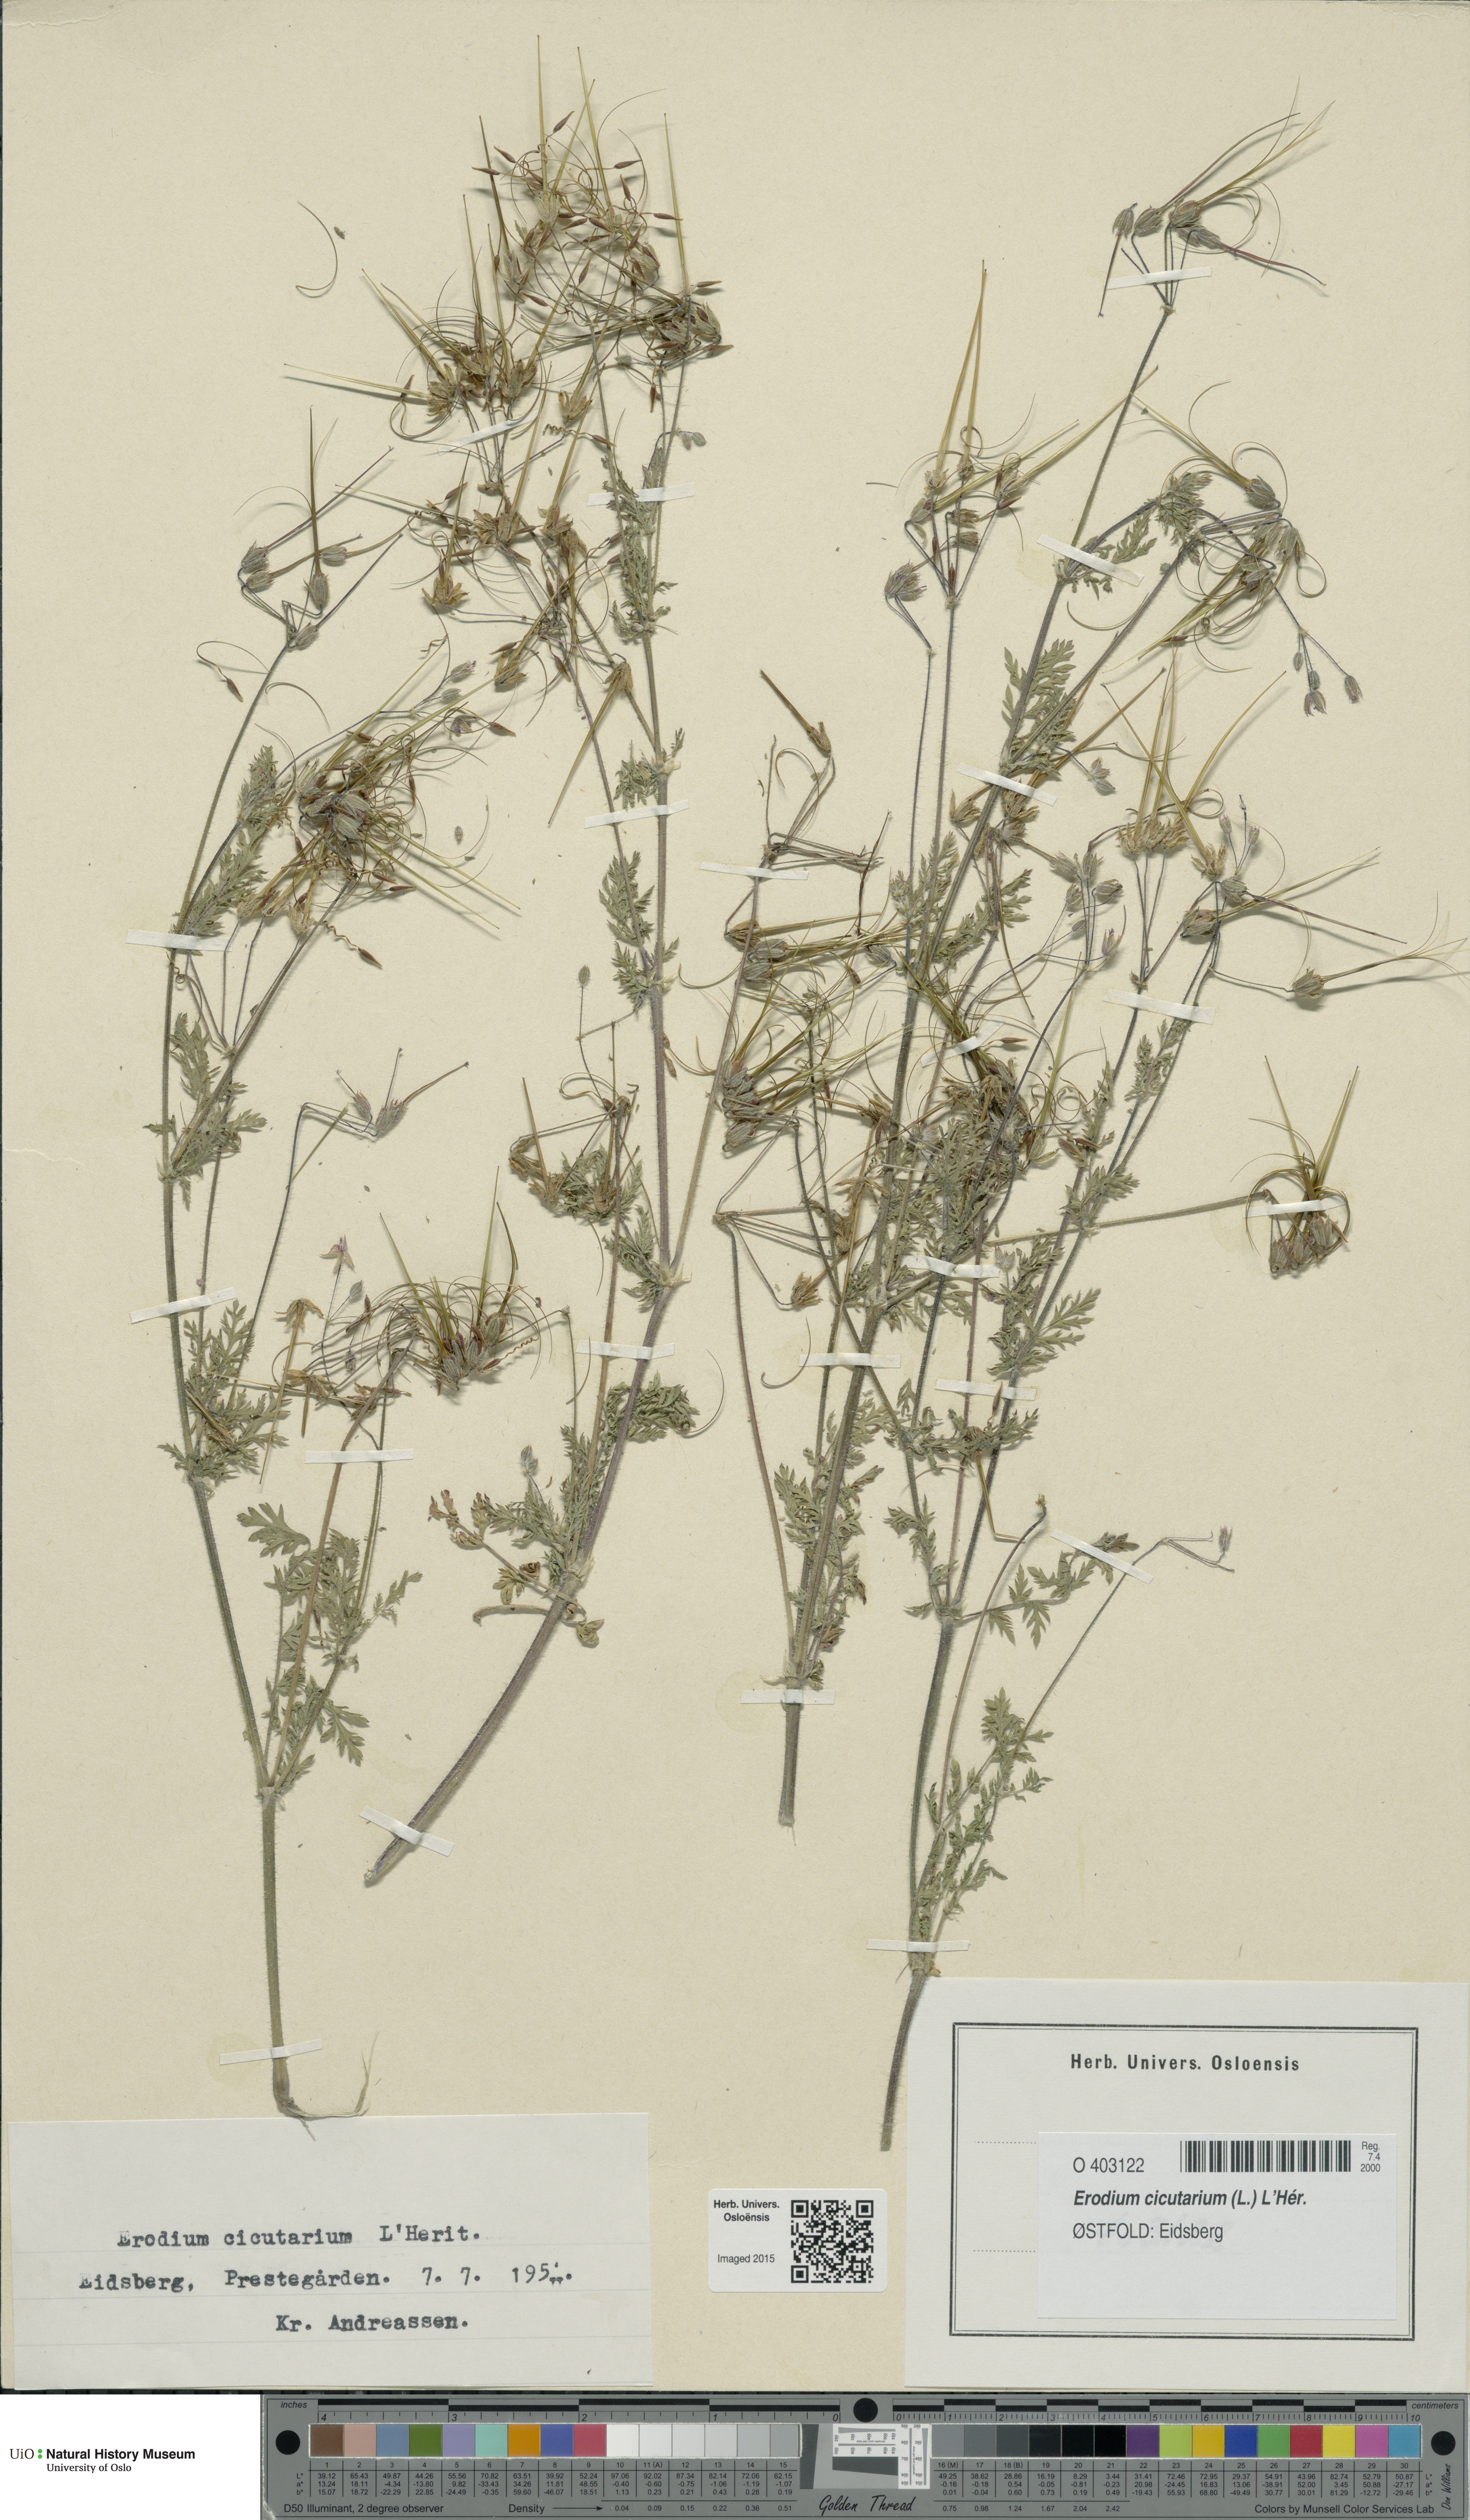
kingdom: Plantae
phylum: Tracheophyta
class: Magnoliopsida
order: Geraniales
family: Geraniaceae
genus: Erodium
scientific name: Erodium cicutarium
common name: Common stork's-bill
